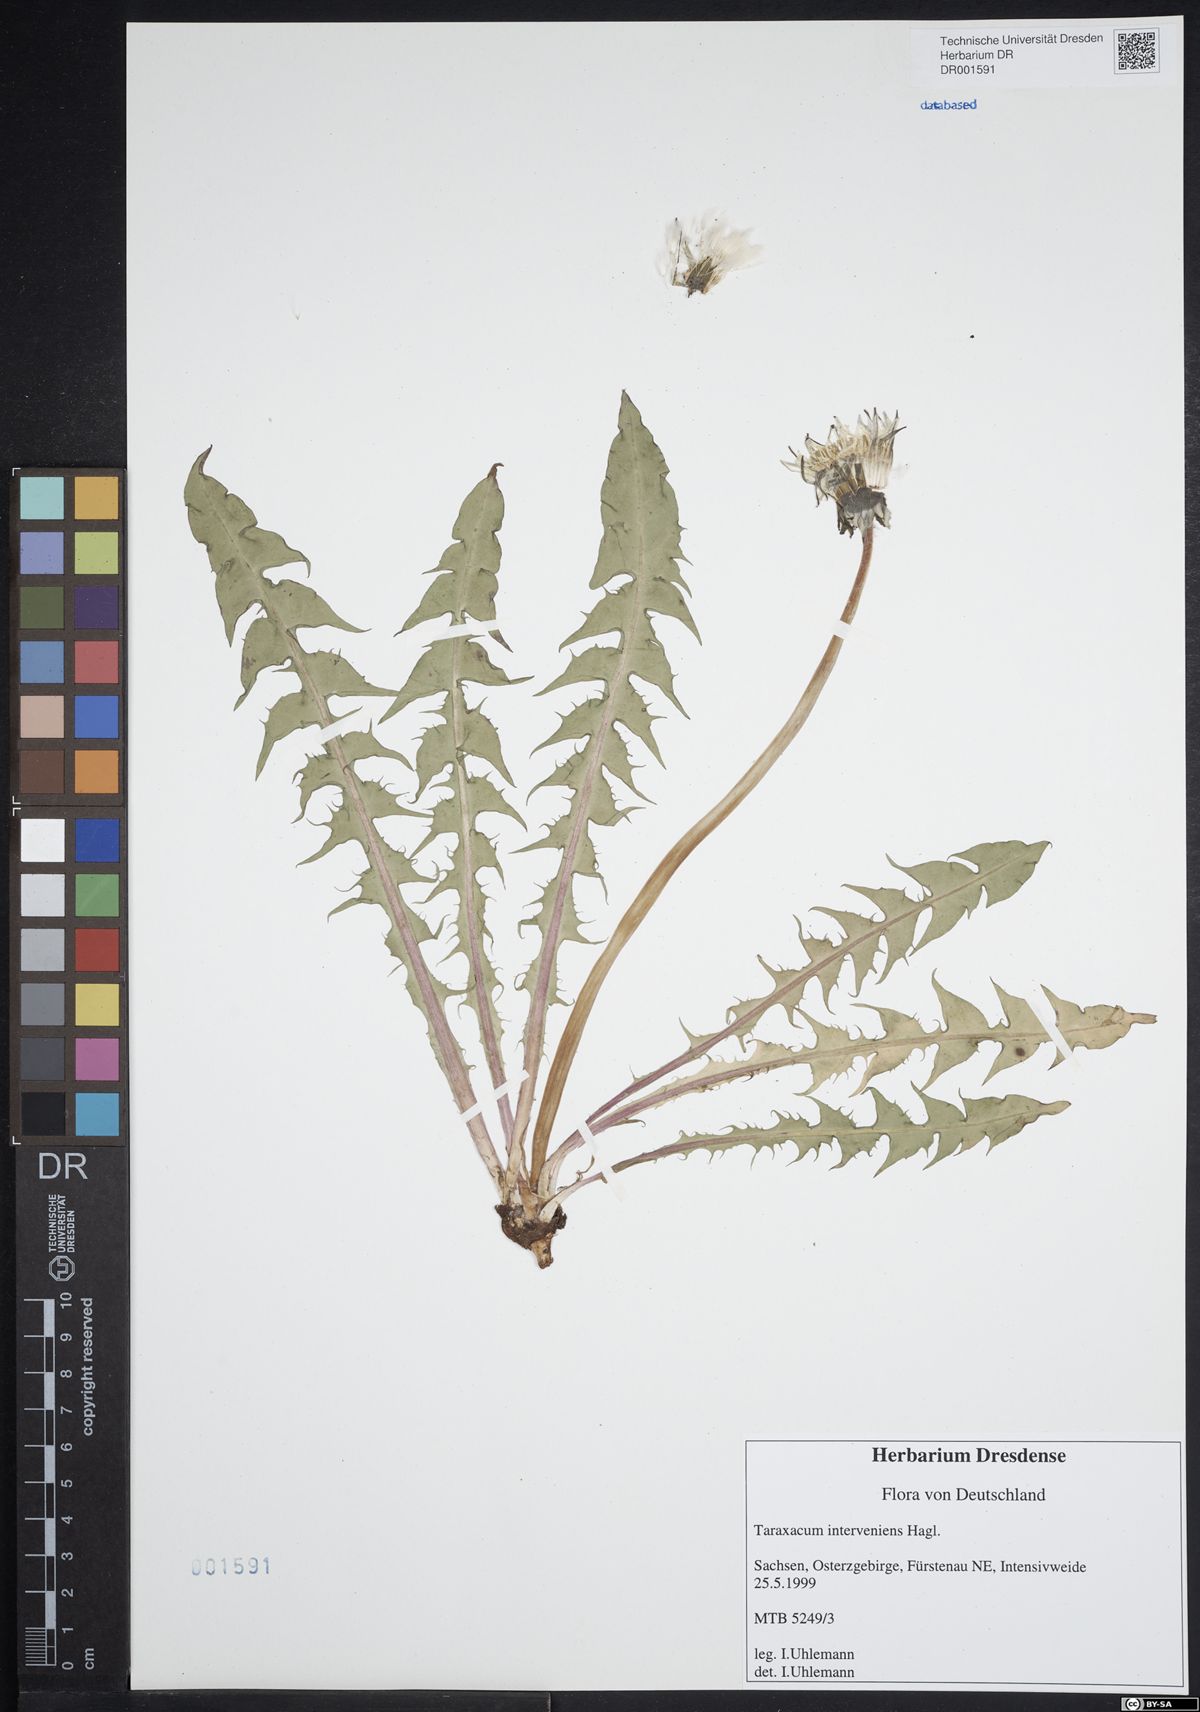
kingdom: Plantae
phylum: Tracheophyta
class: Magnoliopsida
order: Asterales
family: Asteraceae
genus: Taraxacum
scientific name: Taraxacum interveniens
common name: City dandelion
